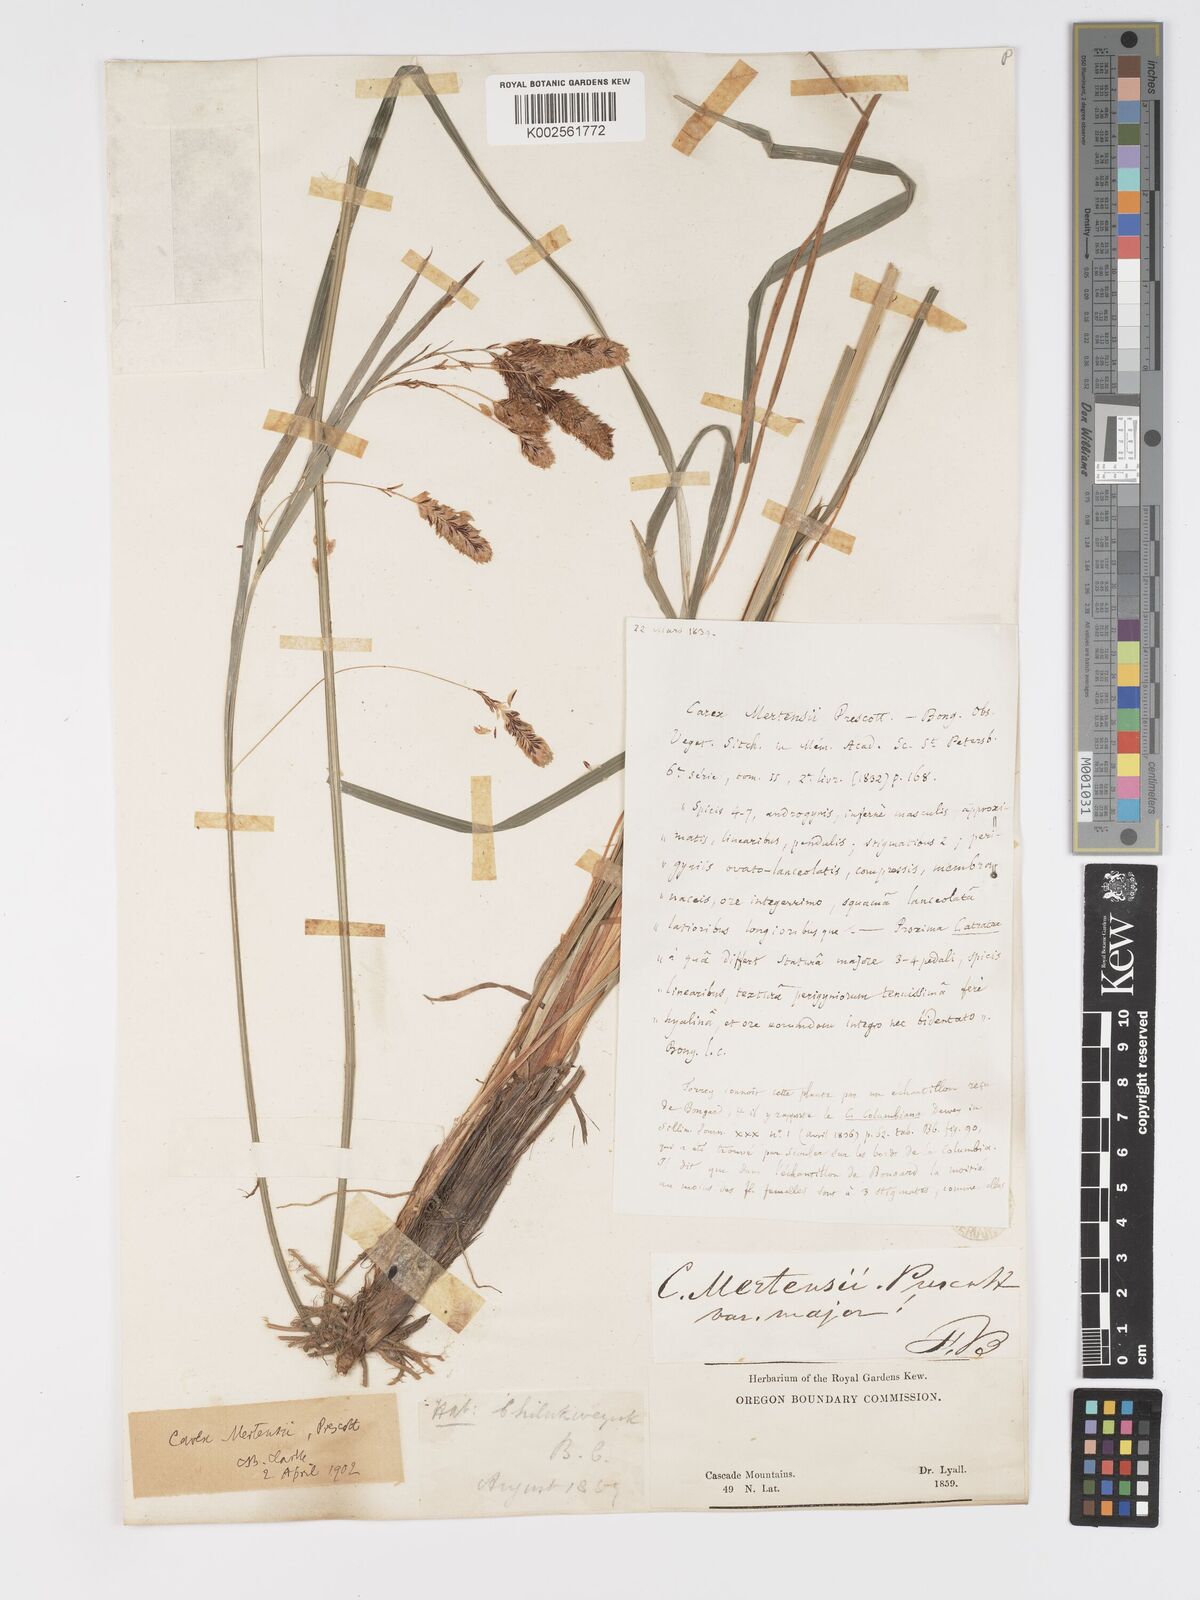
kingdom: Plantae
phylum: Tracheophyta
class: Liliopsida
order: Poales
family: Cyperaceae
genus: Carex
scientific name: Carex mertensii
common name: Mertens' sedge
